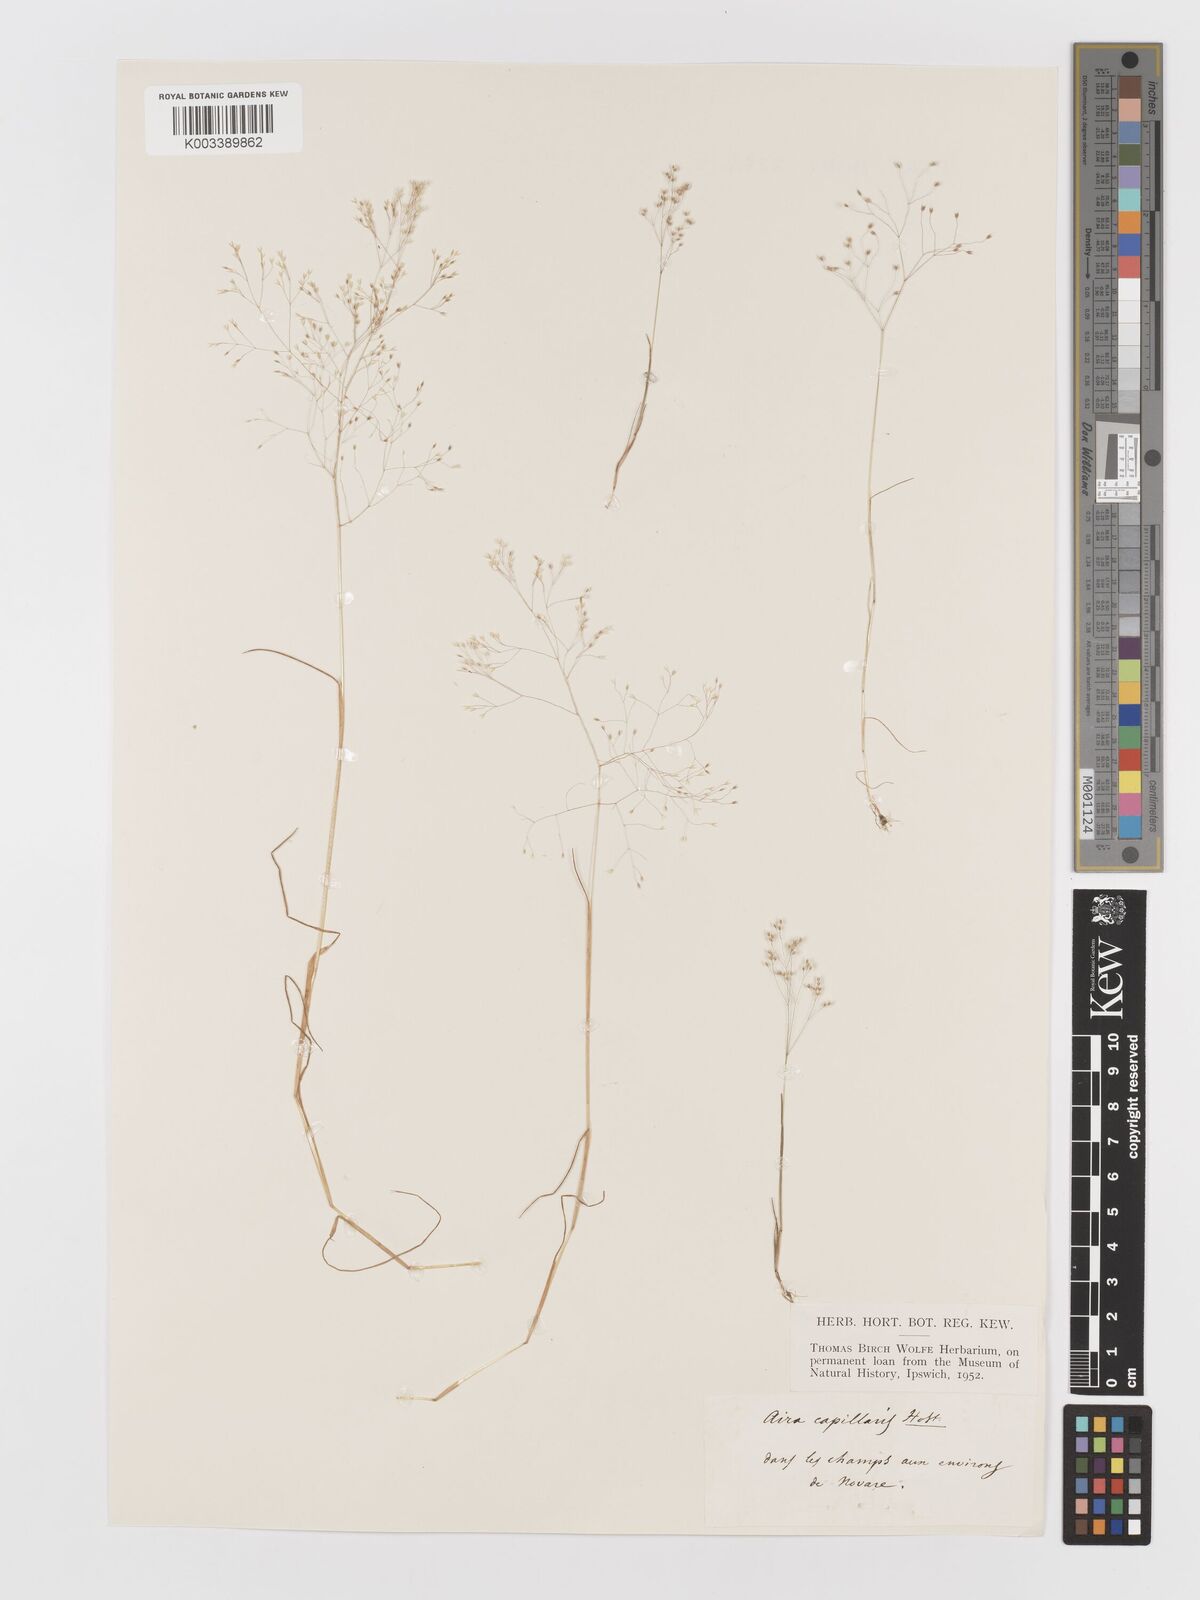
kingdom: Plantae
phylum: Tracheophyta
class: Liliopsida
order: Poales
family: Poaceae
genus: Aira
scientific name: Aira elegans
